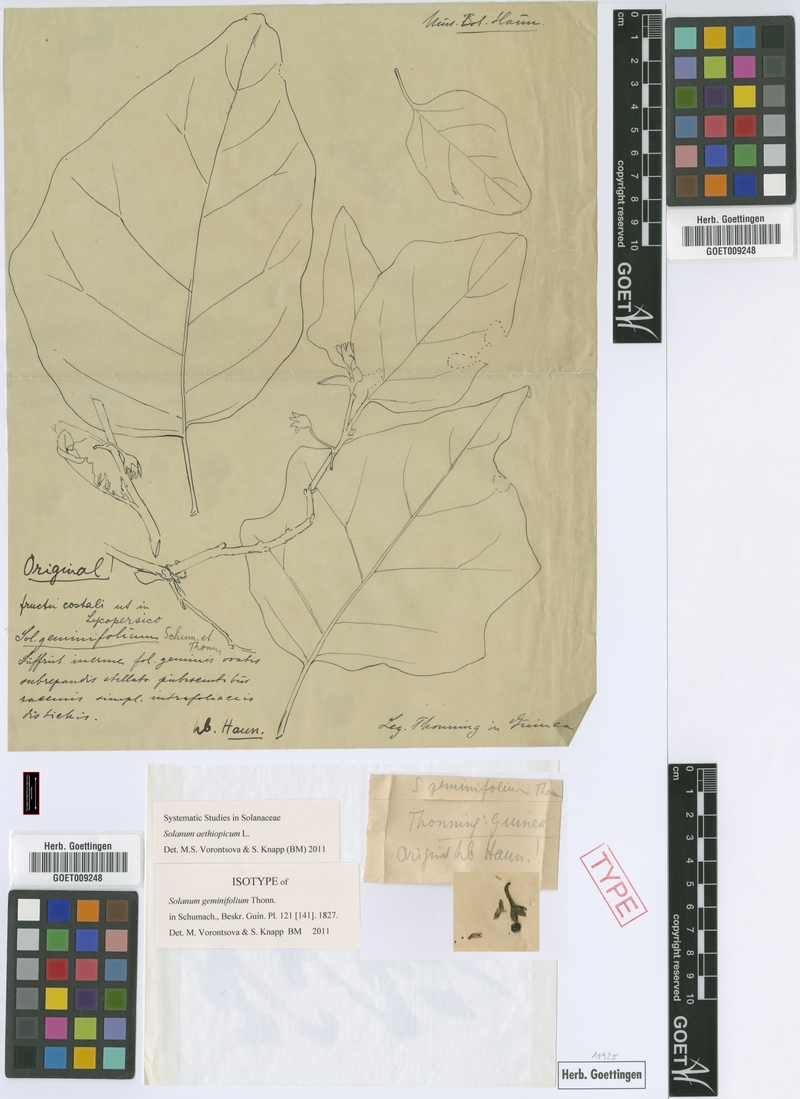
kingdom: Plantae
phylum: Tracheophyta
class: Magnoliopsida
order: Solanales
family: Solanaceae
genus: Solanum
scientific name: Solanum aethiopicum
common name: Gilo
